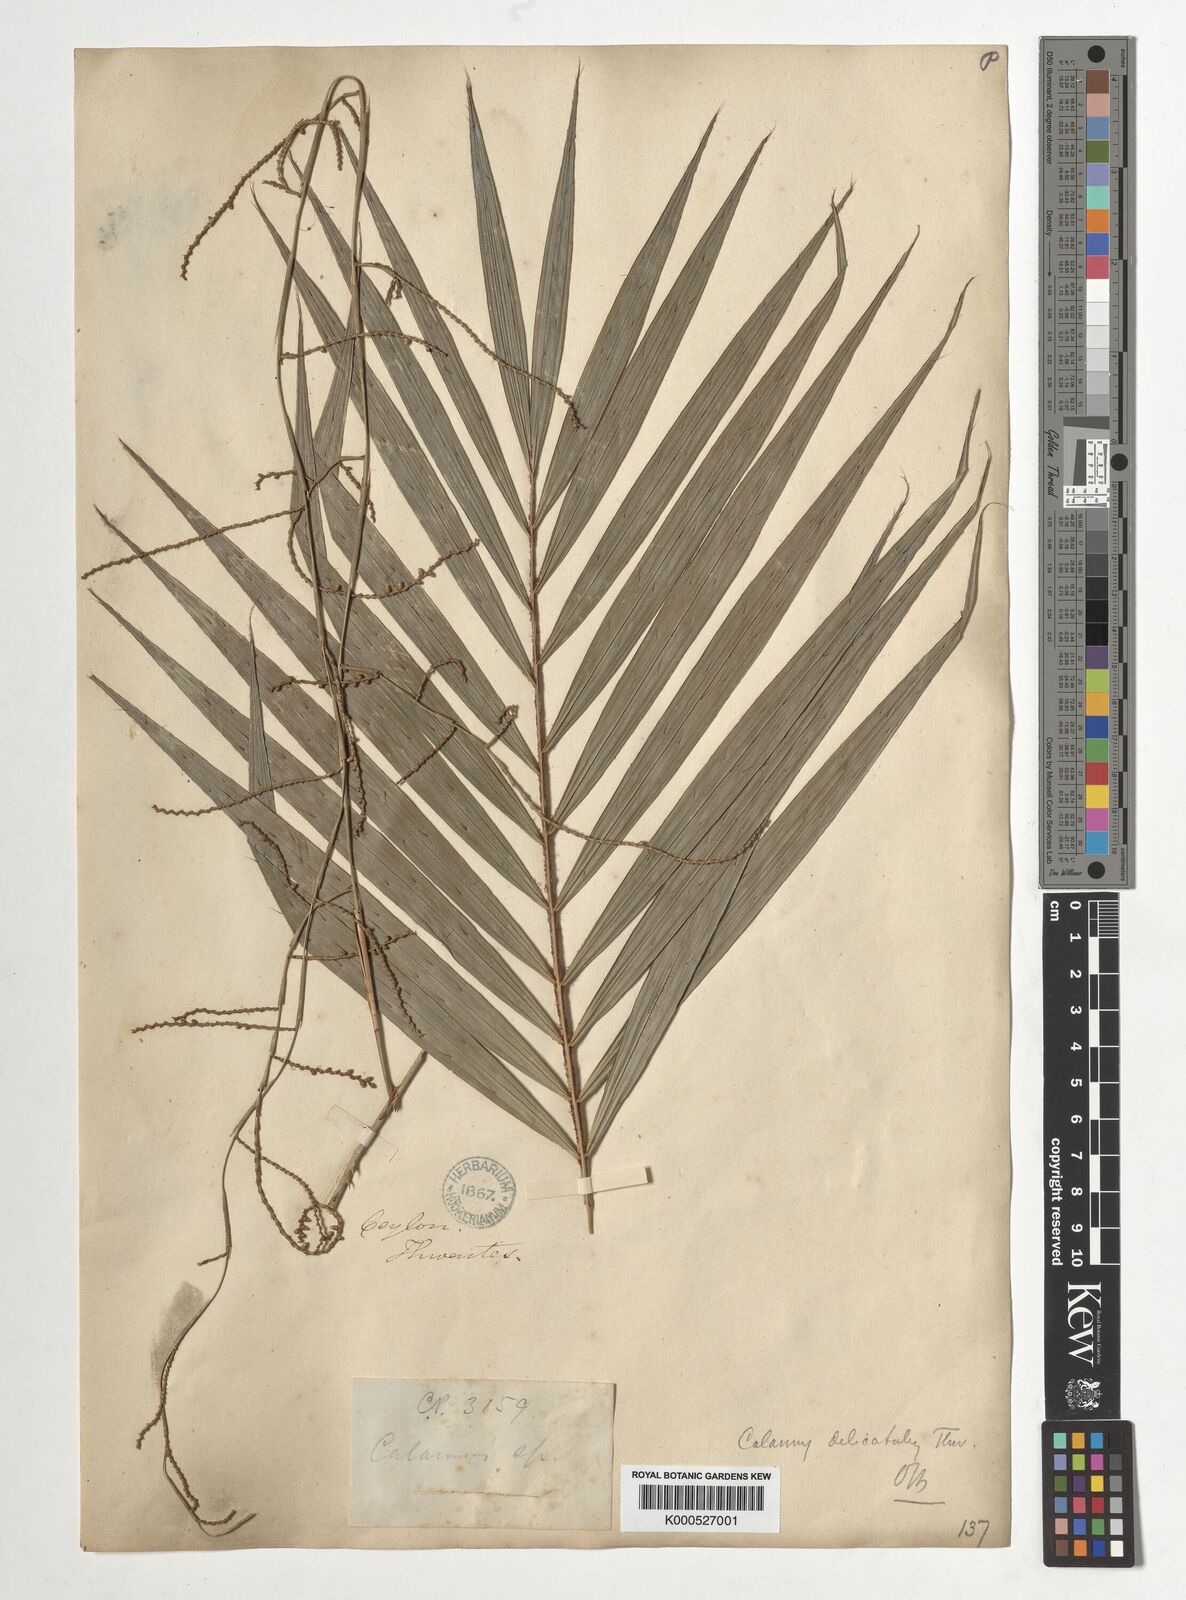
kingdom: Plantae
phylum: Tracheophyta
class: Liliopsida
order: Arecales
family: Arecaceae
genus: Calamus
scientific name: Calamus delicatulus
